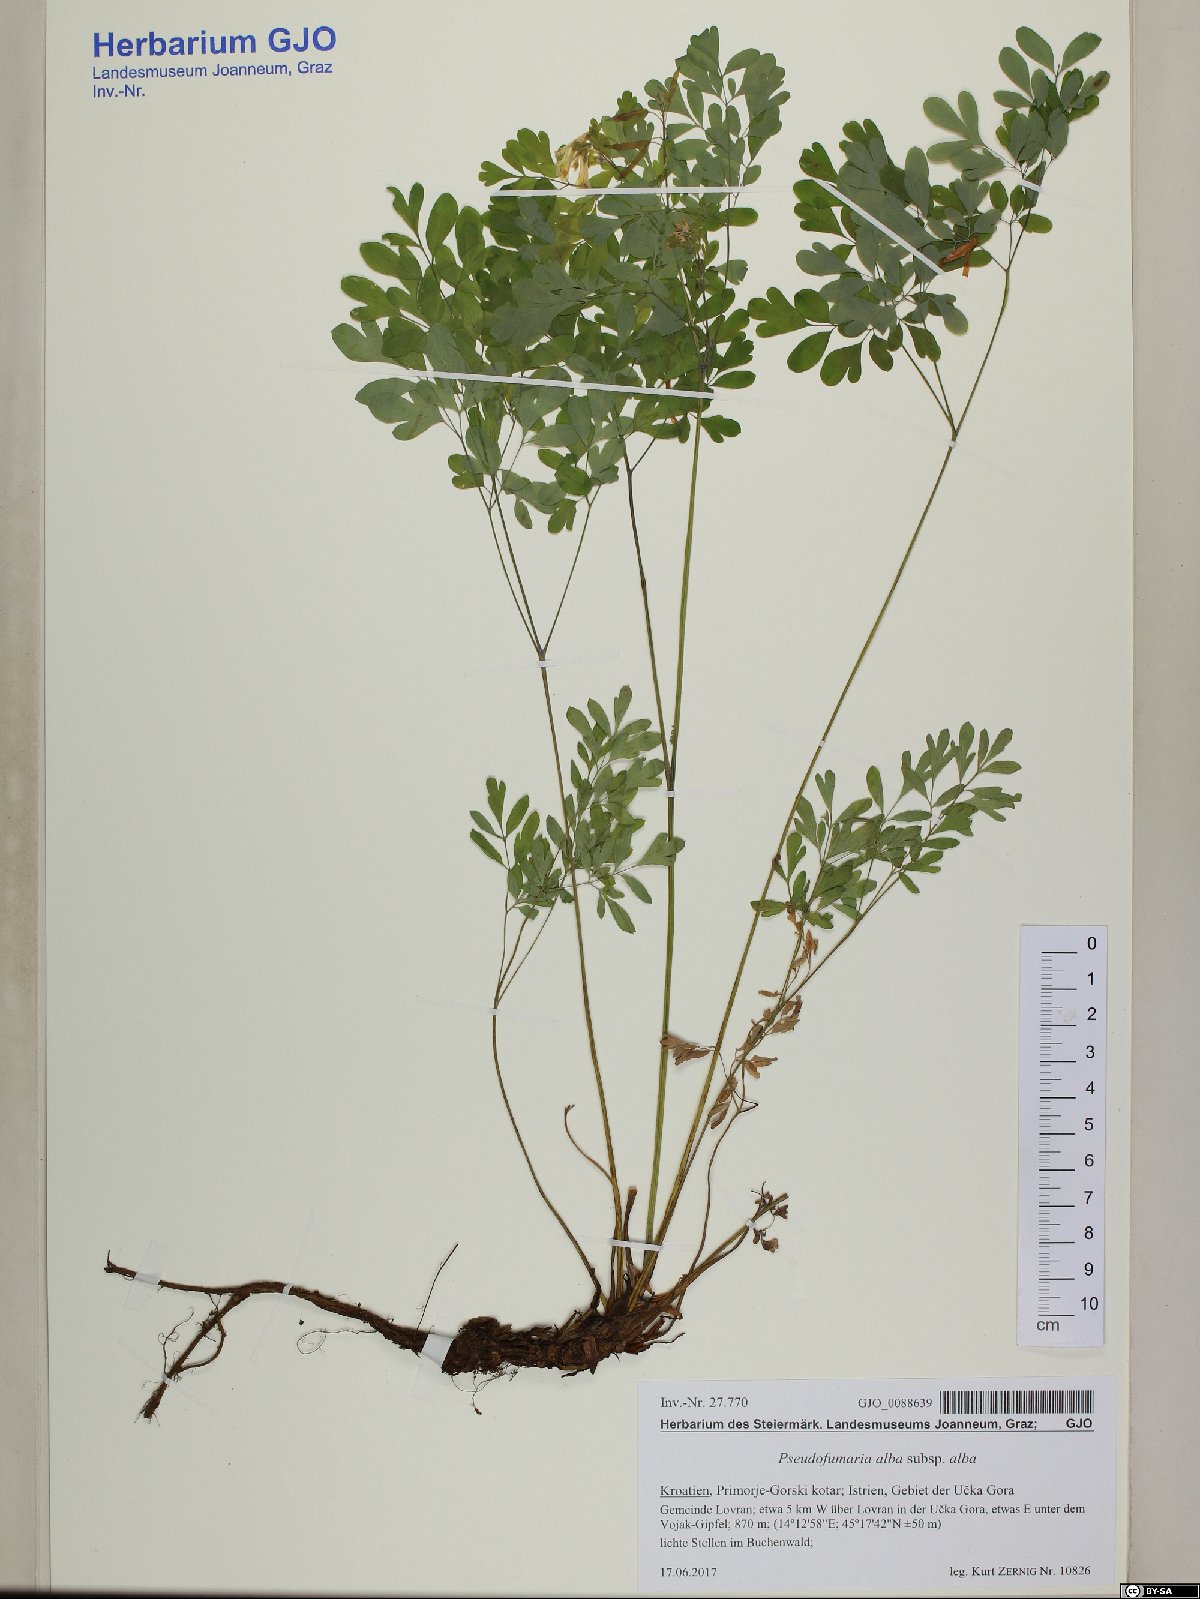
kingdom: Plantae
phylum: Tracheophyta
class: Magnoliopsida
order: Ranunculales
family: Papaveraceae
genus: Pseudofumaria
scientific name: Pseudofumaria alba
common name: Pale corydalis
